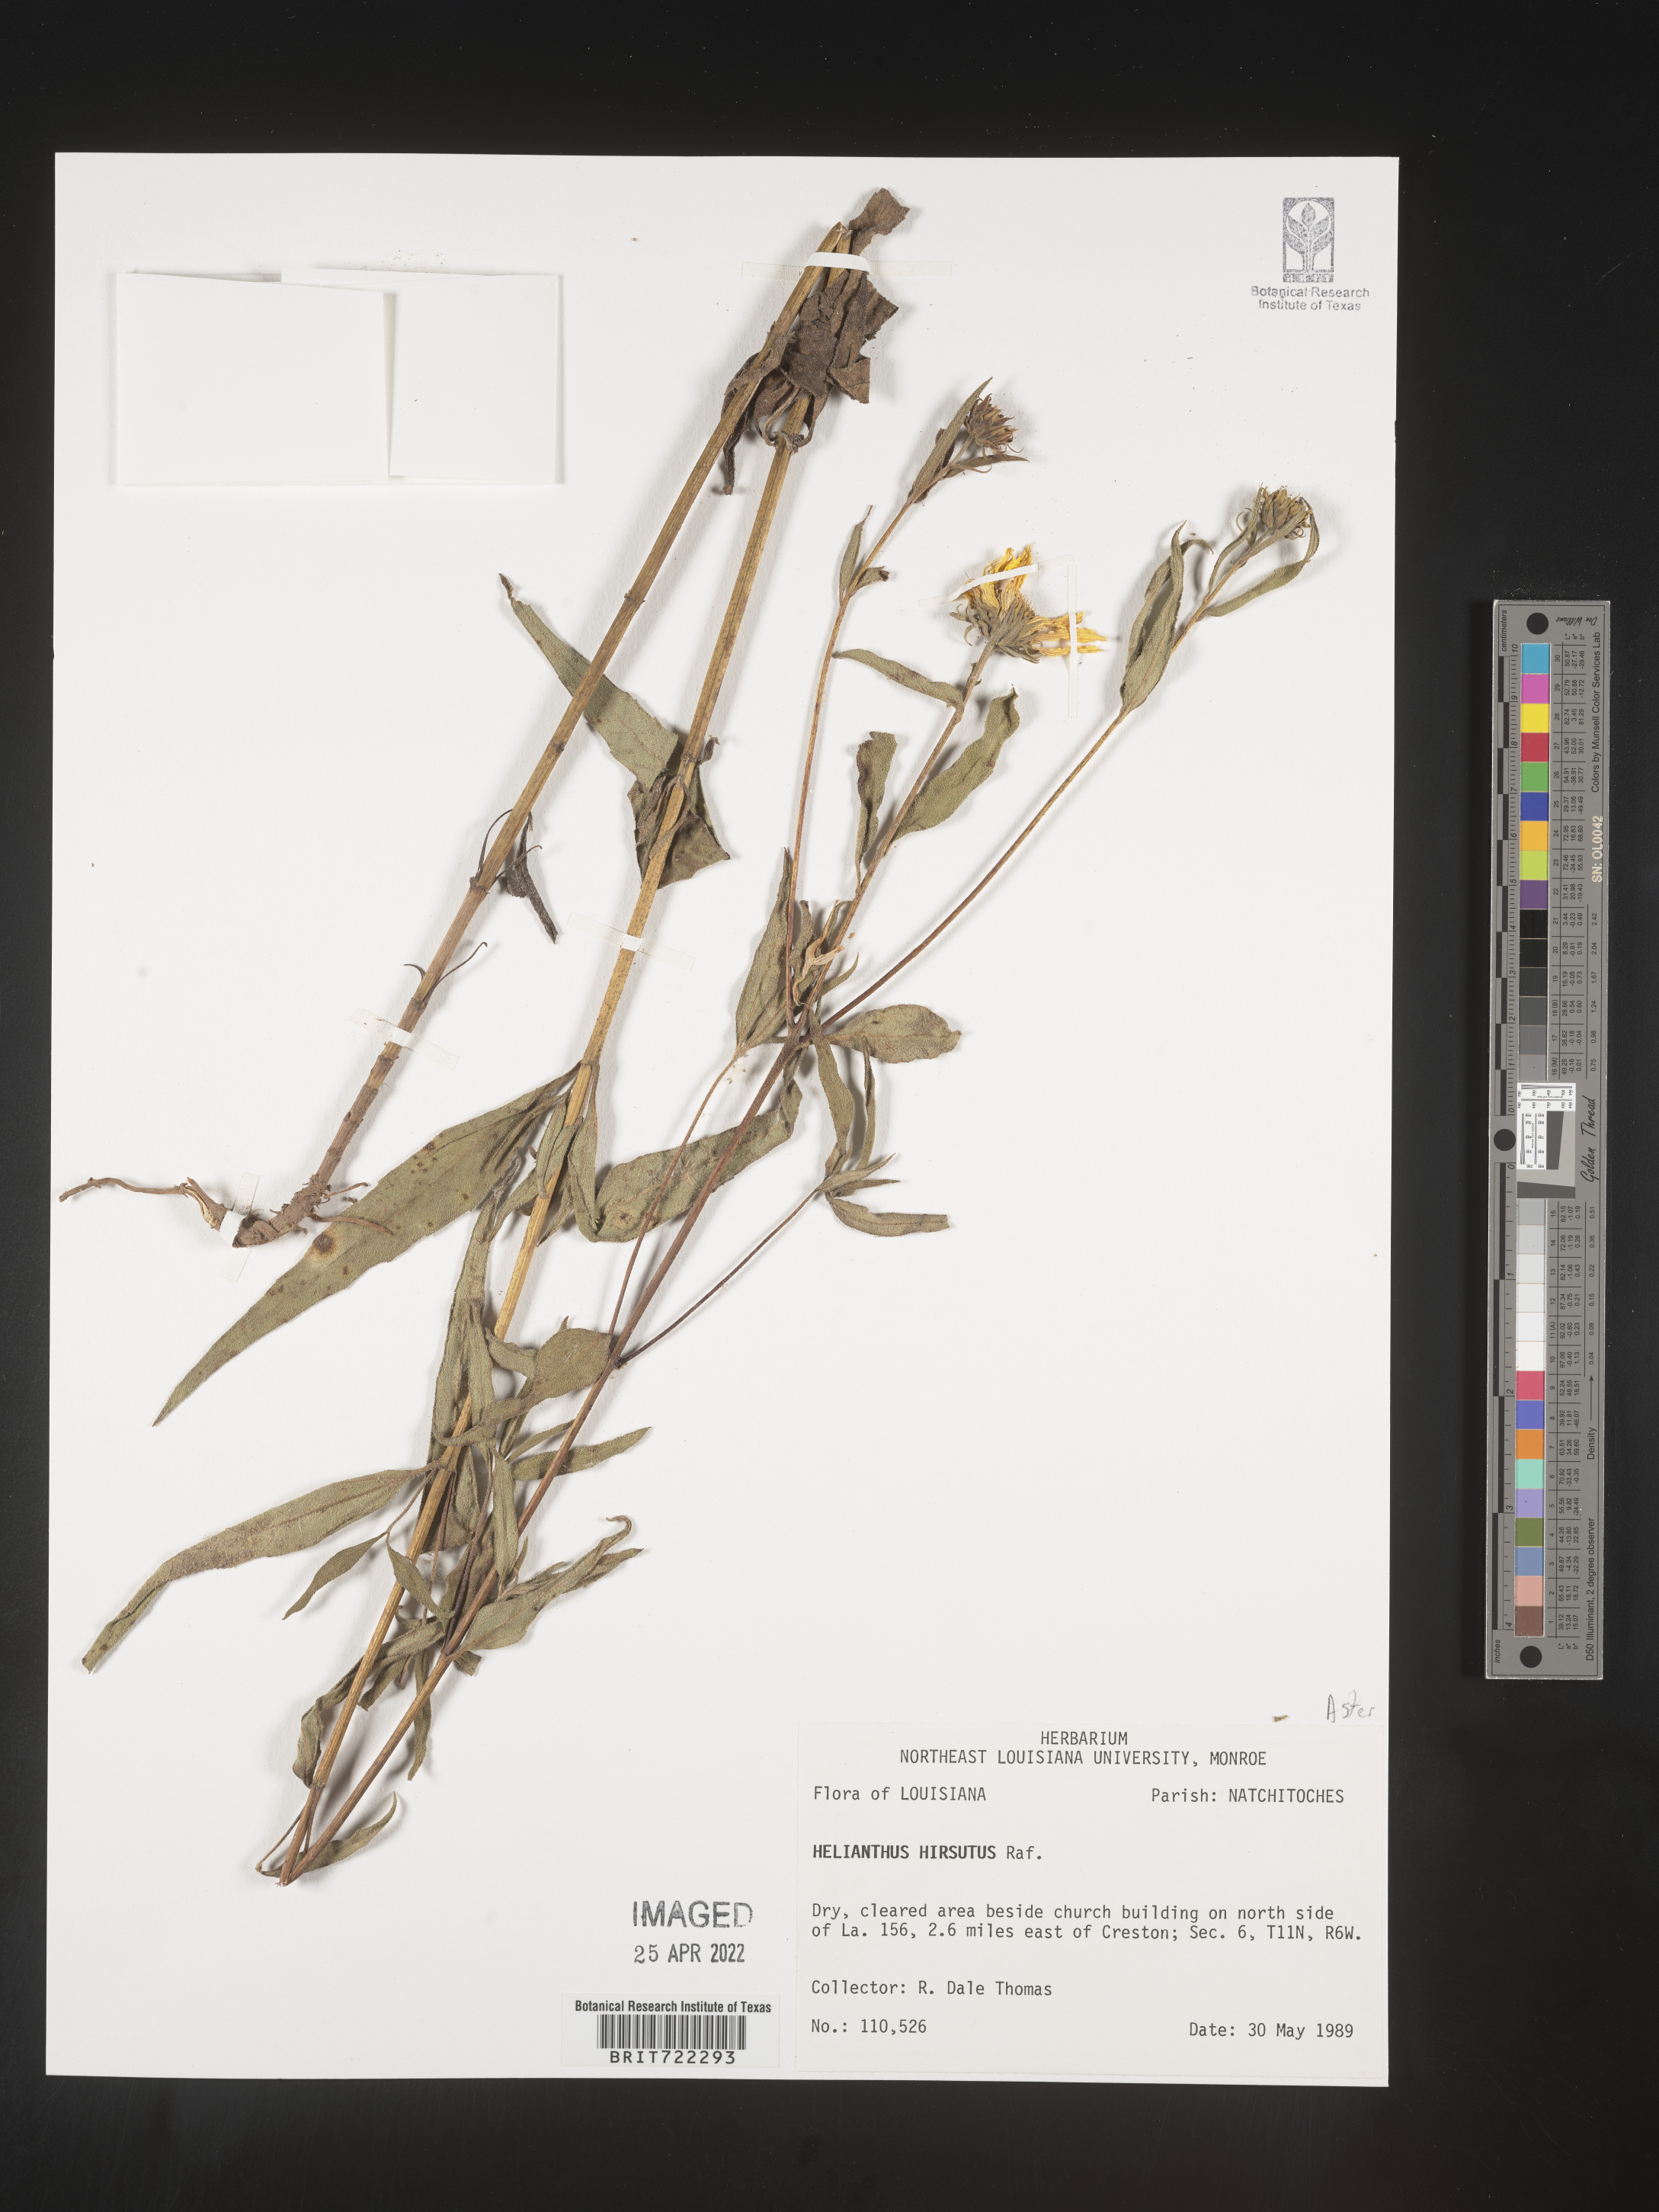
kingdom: Plantae
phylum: Tracheophyta
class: Magnoliopsida
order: Asterales
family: Asteraceae
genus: Helianthus
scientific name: Helianthus hirsutus
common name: Hairy sunflower
